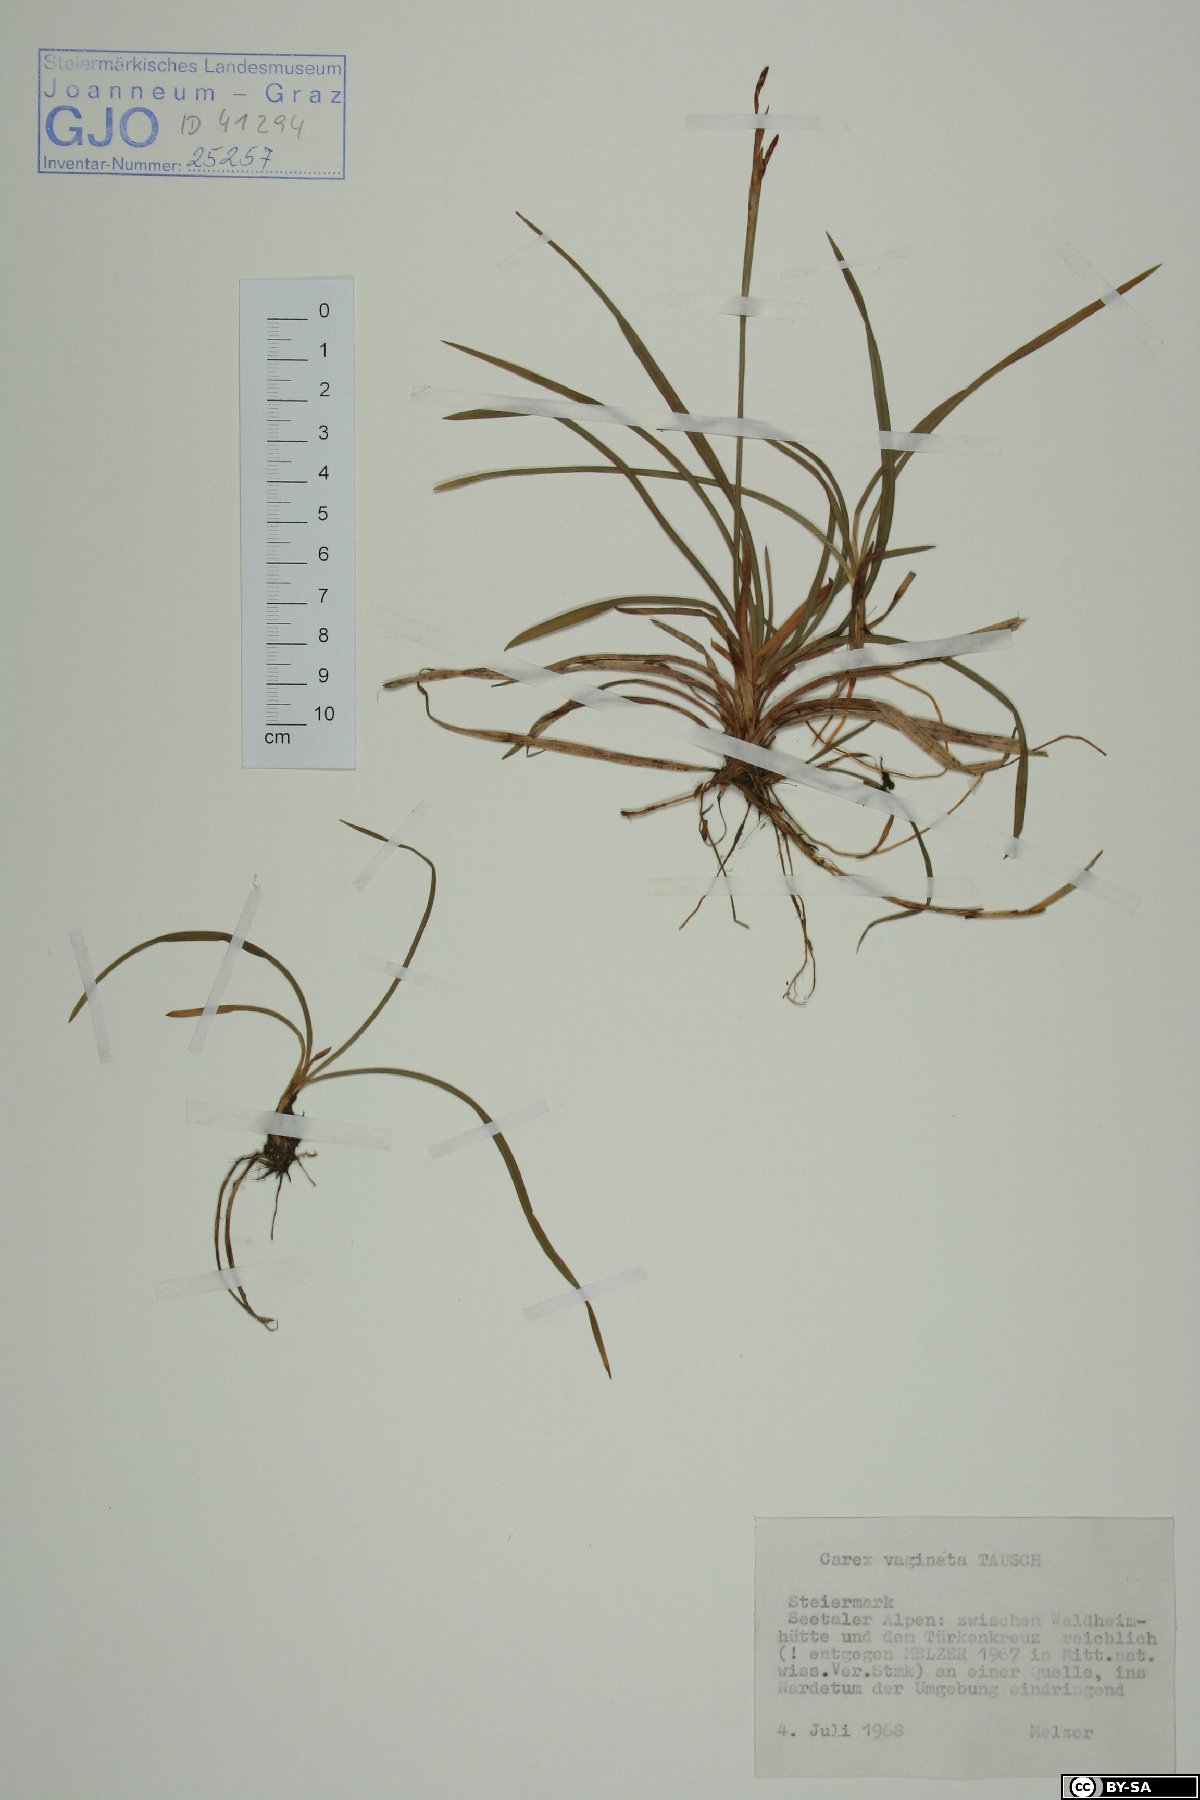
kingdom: Plantae
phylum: Tracheophyta
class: Liliopsida
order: Poales
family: Cyperaceae
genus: Carex
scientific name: Carex vaginata
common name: Sheathed sedge
